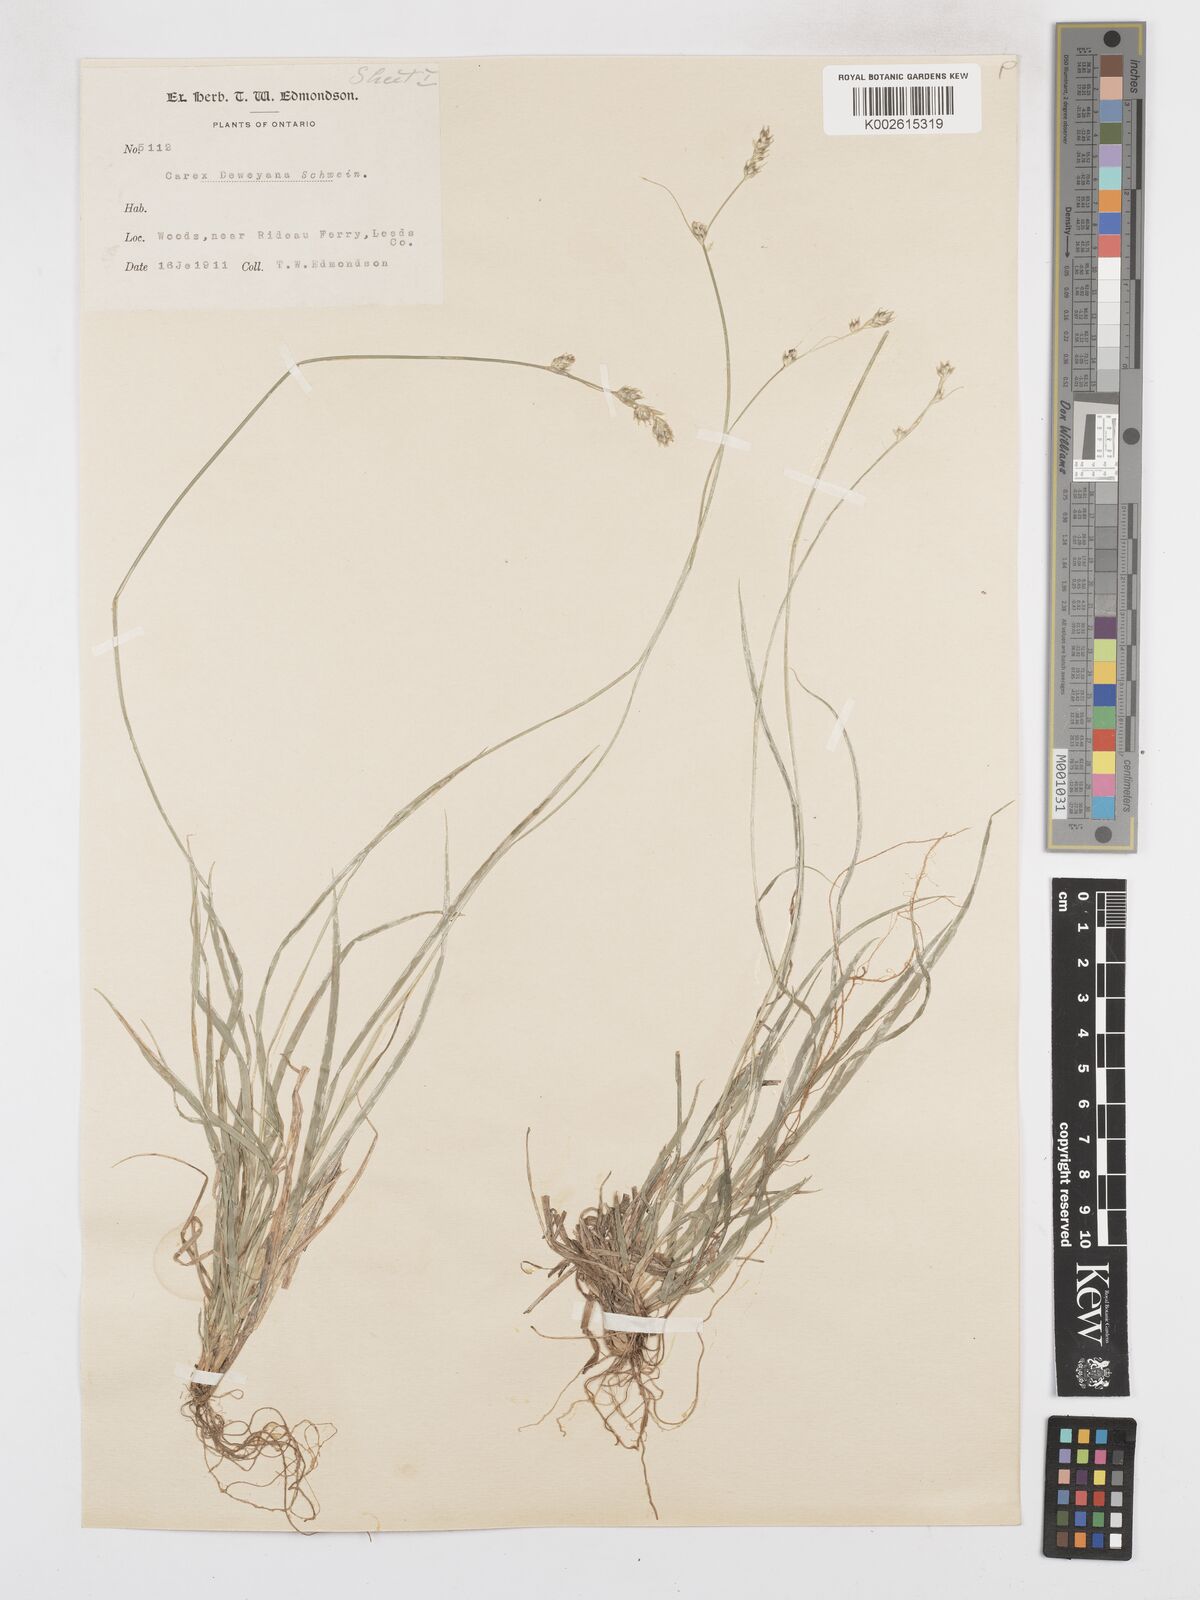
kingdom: Plantae
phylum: Tracheophyta
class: Liliopsida
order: Poales
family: Cyperaceae
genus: Carex
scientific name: Carex deweyana
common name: Dewey's sedge
